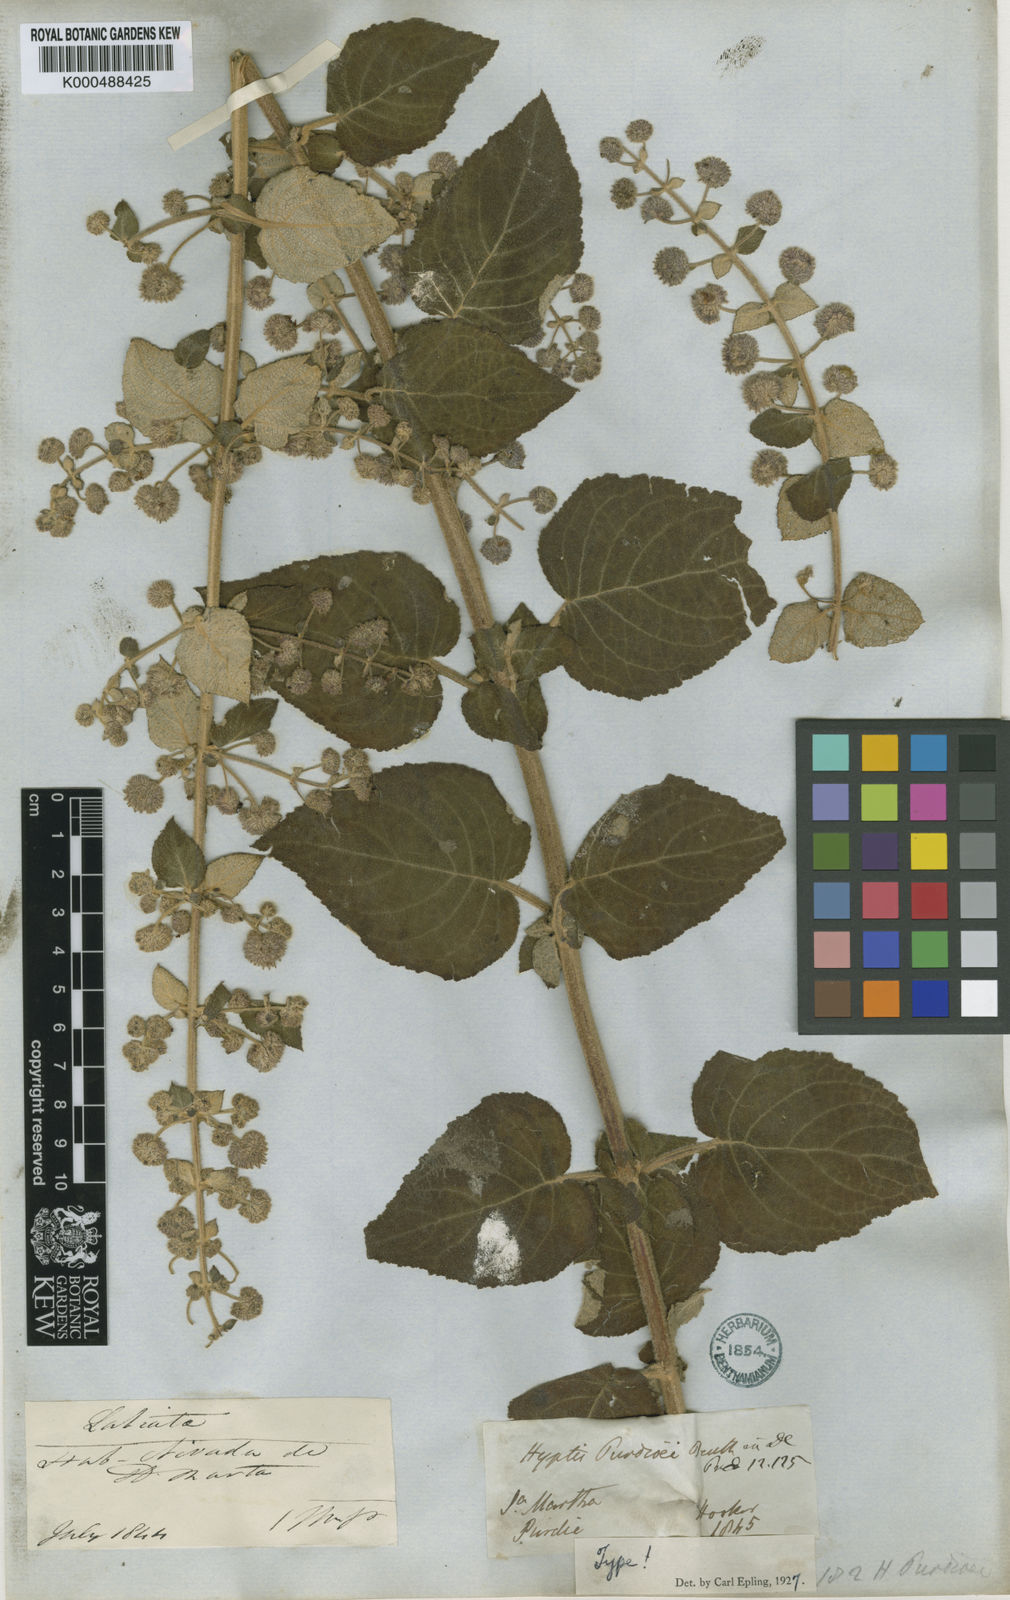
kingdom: Plantae
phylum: Tracheophyta
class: Magnoliopsida
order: Lamiales
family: Lamiaceae
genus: Mesosphaerum
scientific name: Mesosphaerum purdiei
